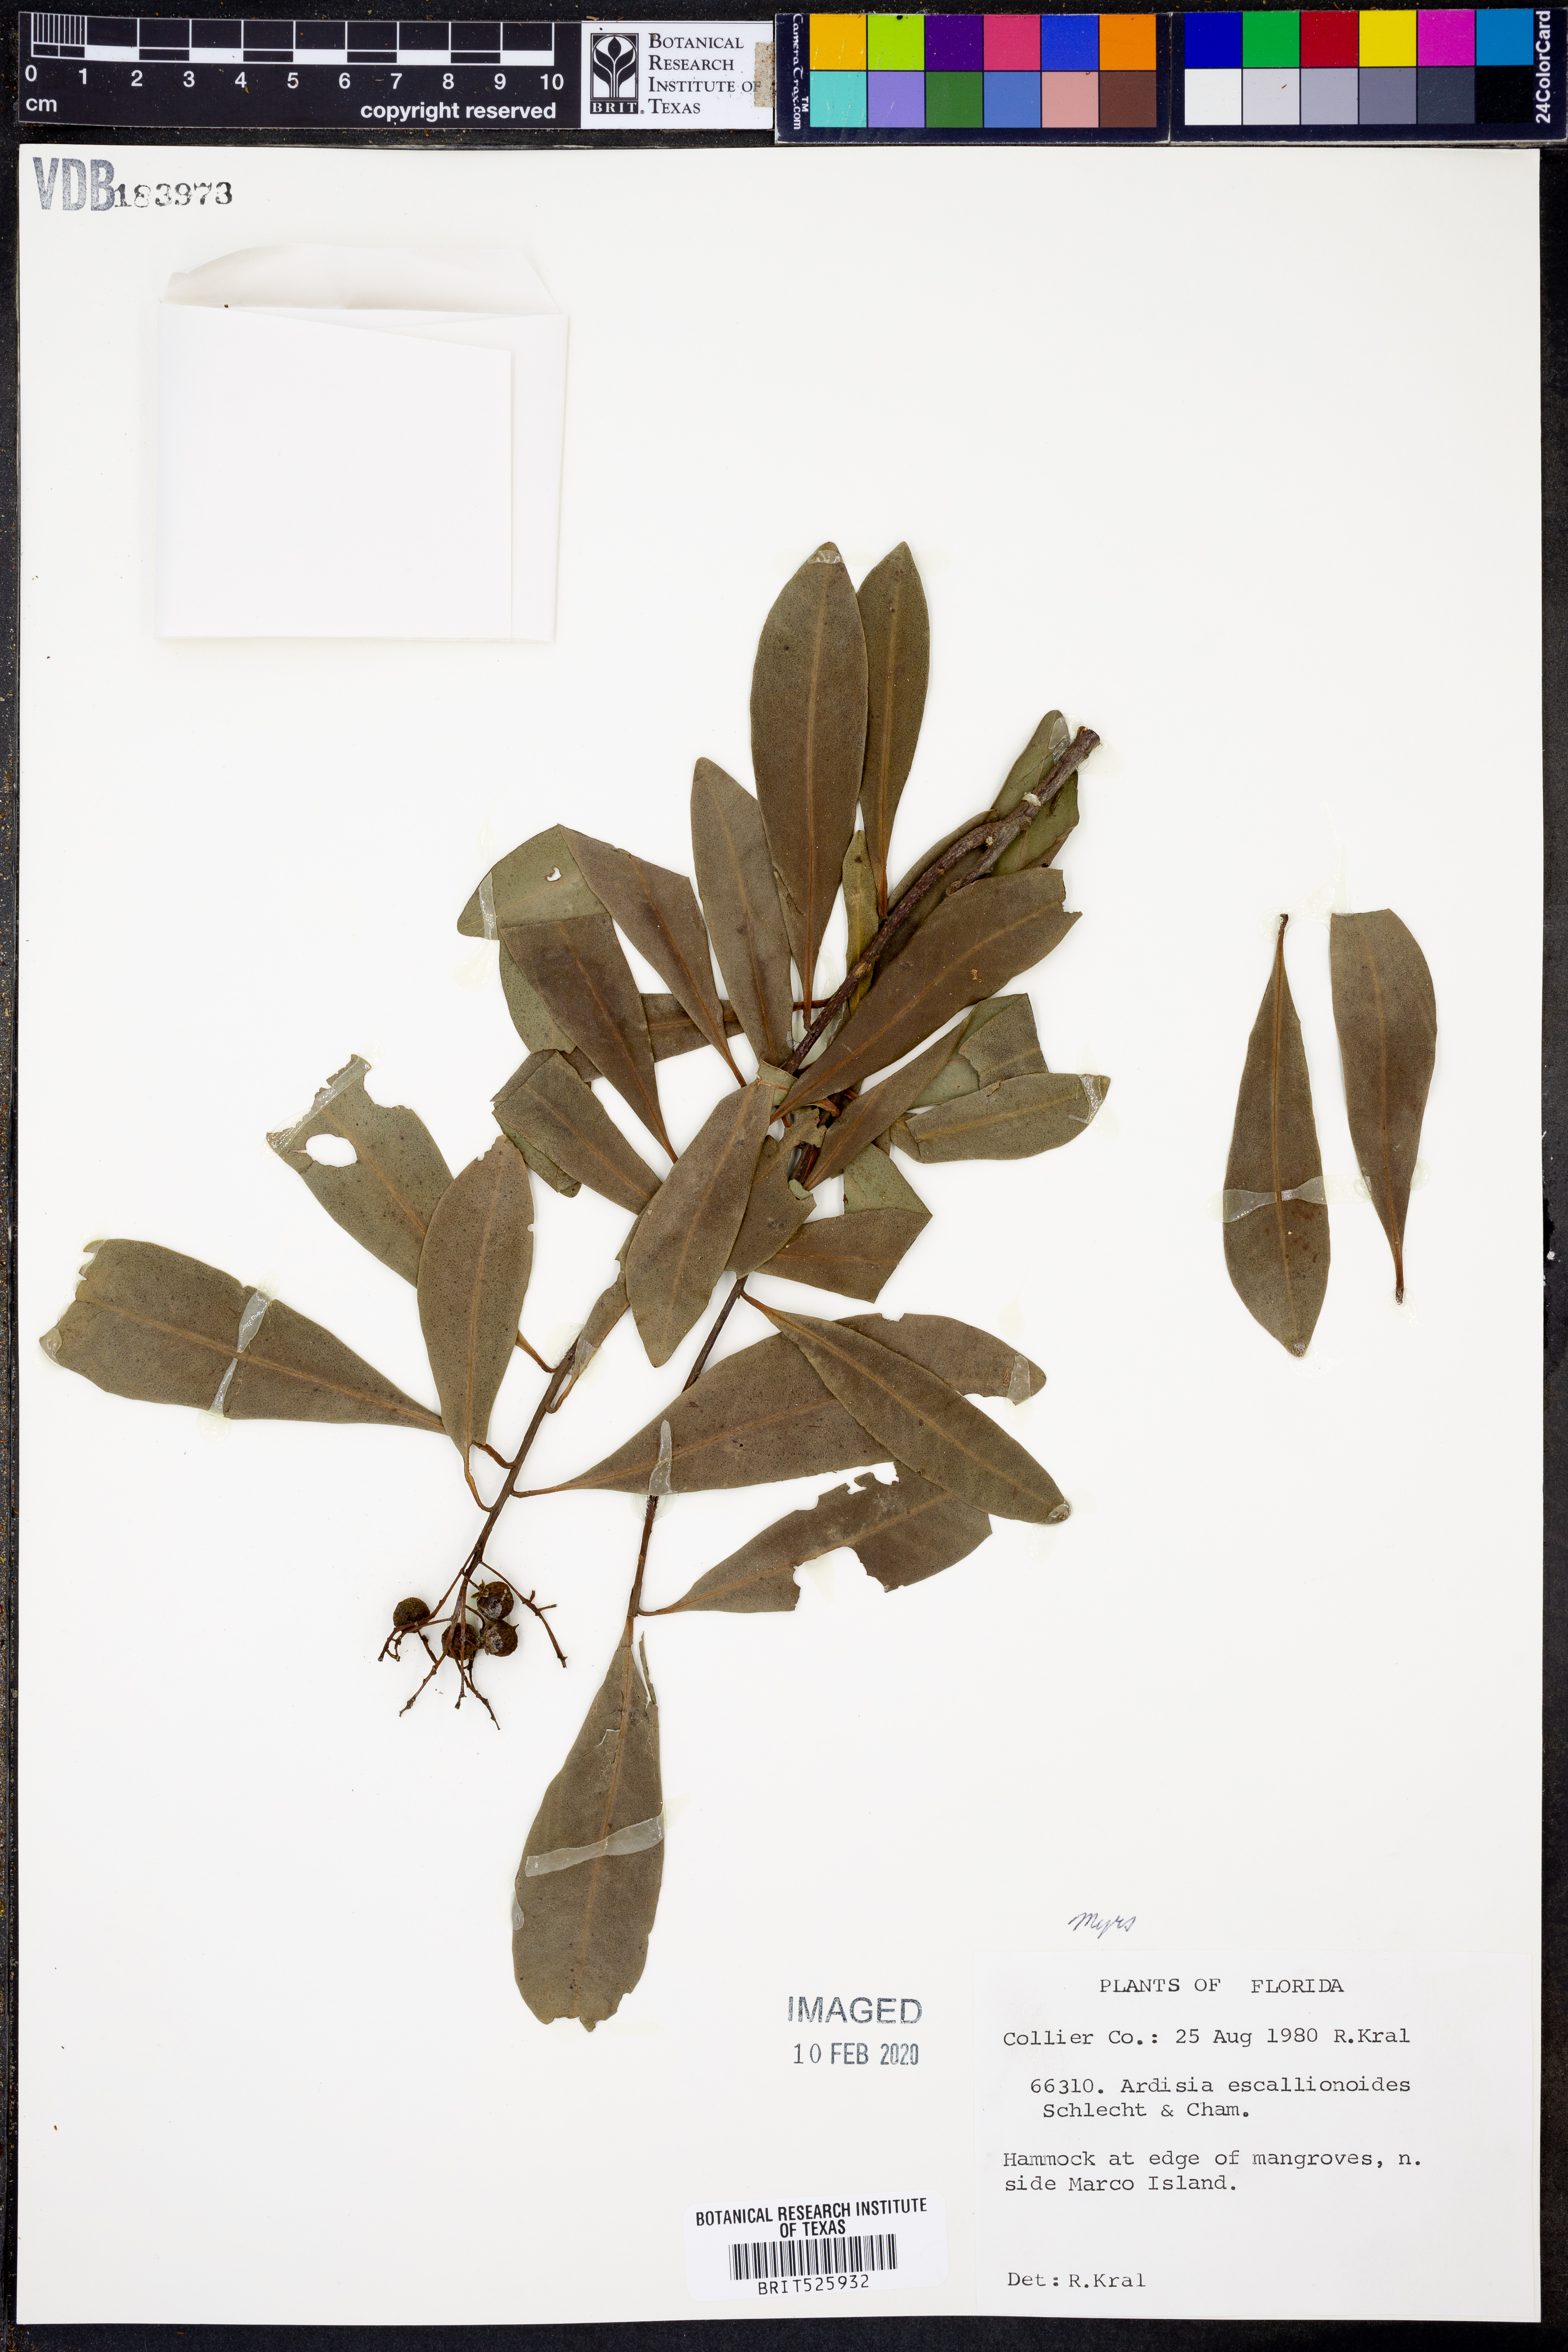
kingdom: Plantae
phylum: Tracheophyta
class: Magnoliopsida
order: Ericales
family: Primulaceae
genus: Ardisia
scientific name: Ardisia escallonioides
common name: Island marlberry
